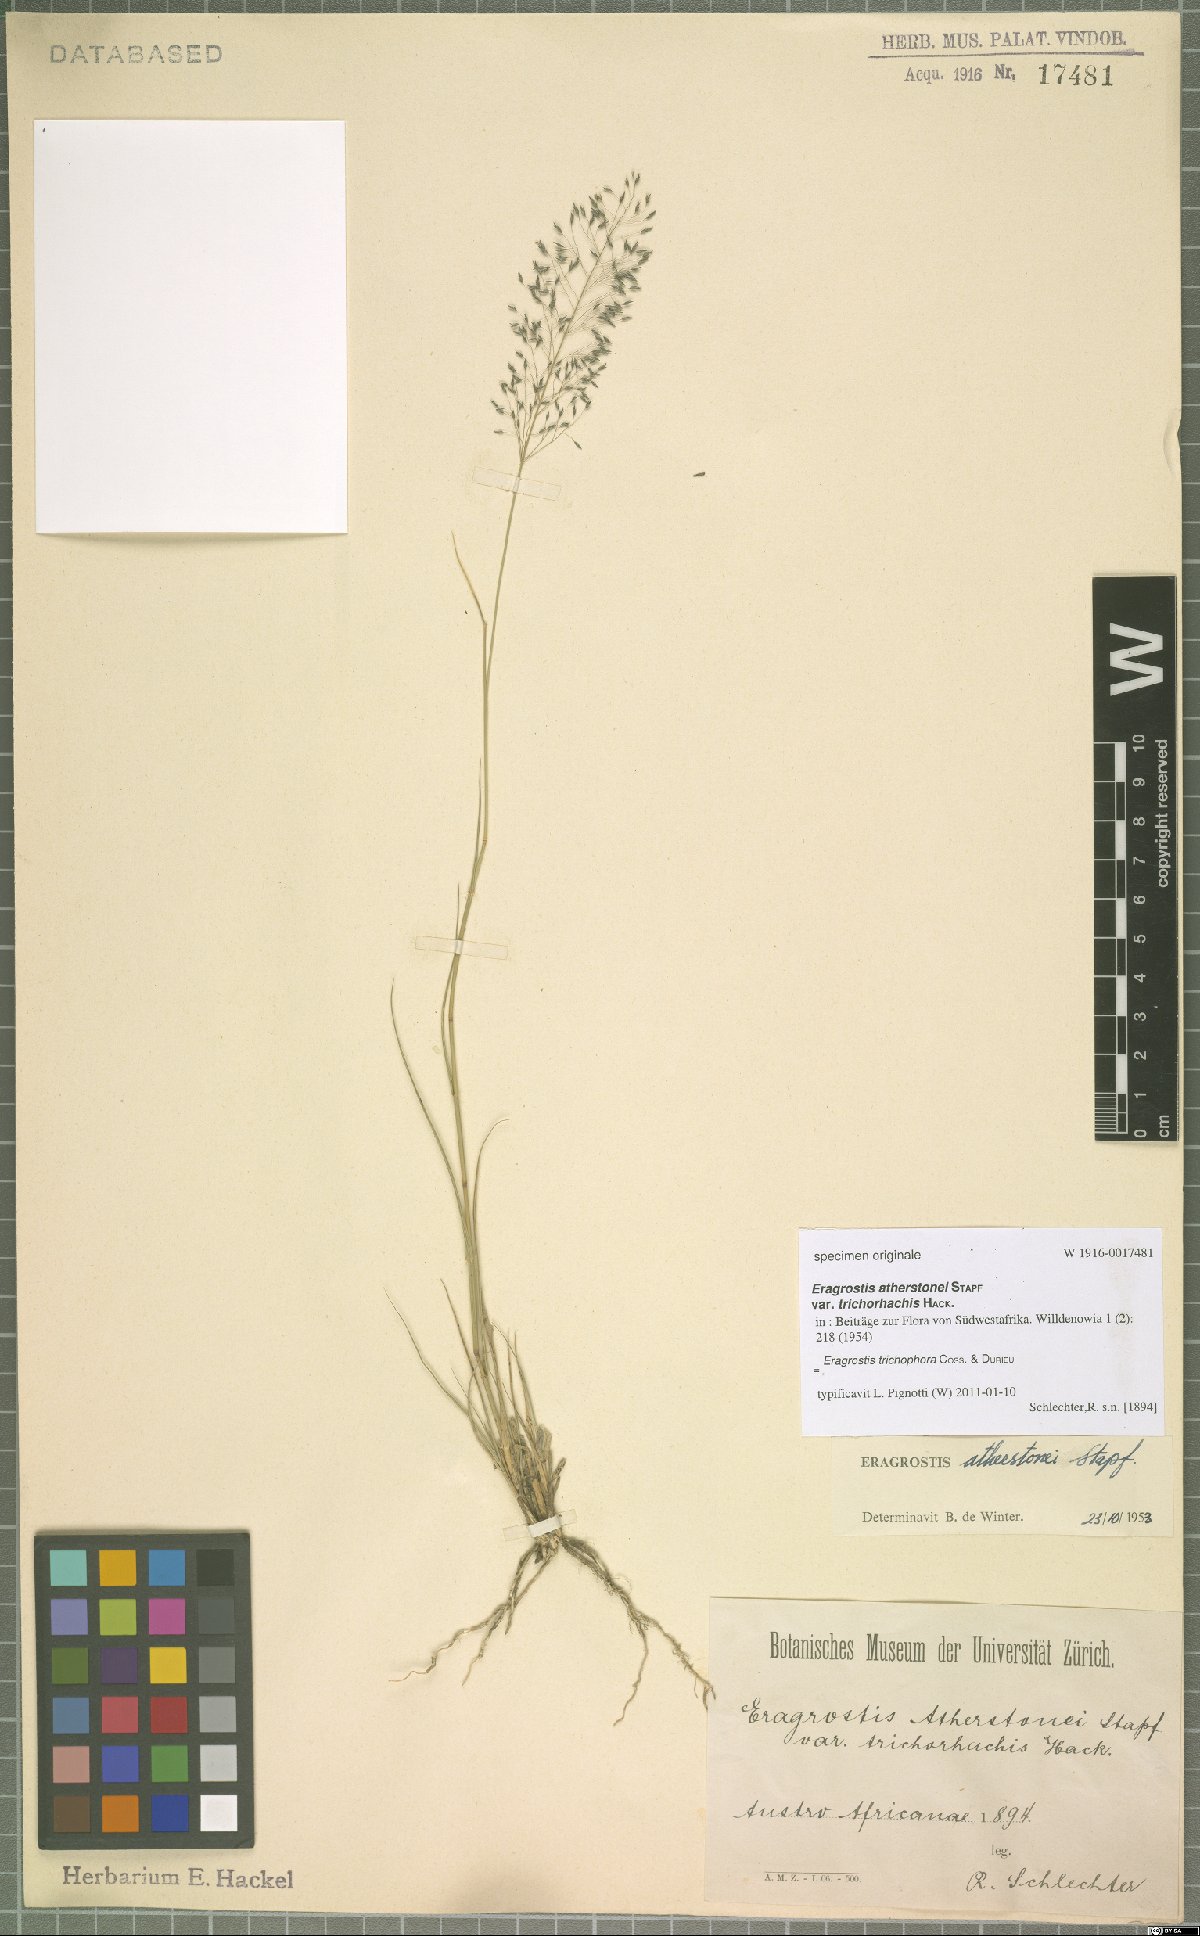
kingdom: Plantae
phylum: Tracheophyta
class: Liliopsida
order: Poales
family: Poaceae
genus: Eragrostis
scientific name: Eragrostis cylindriflora
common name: Cylinderflower lovegrass
